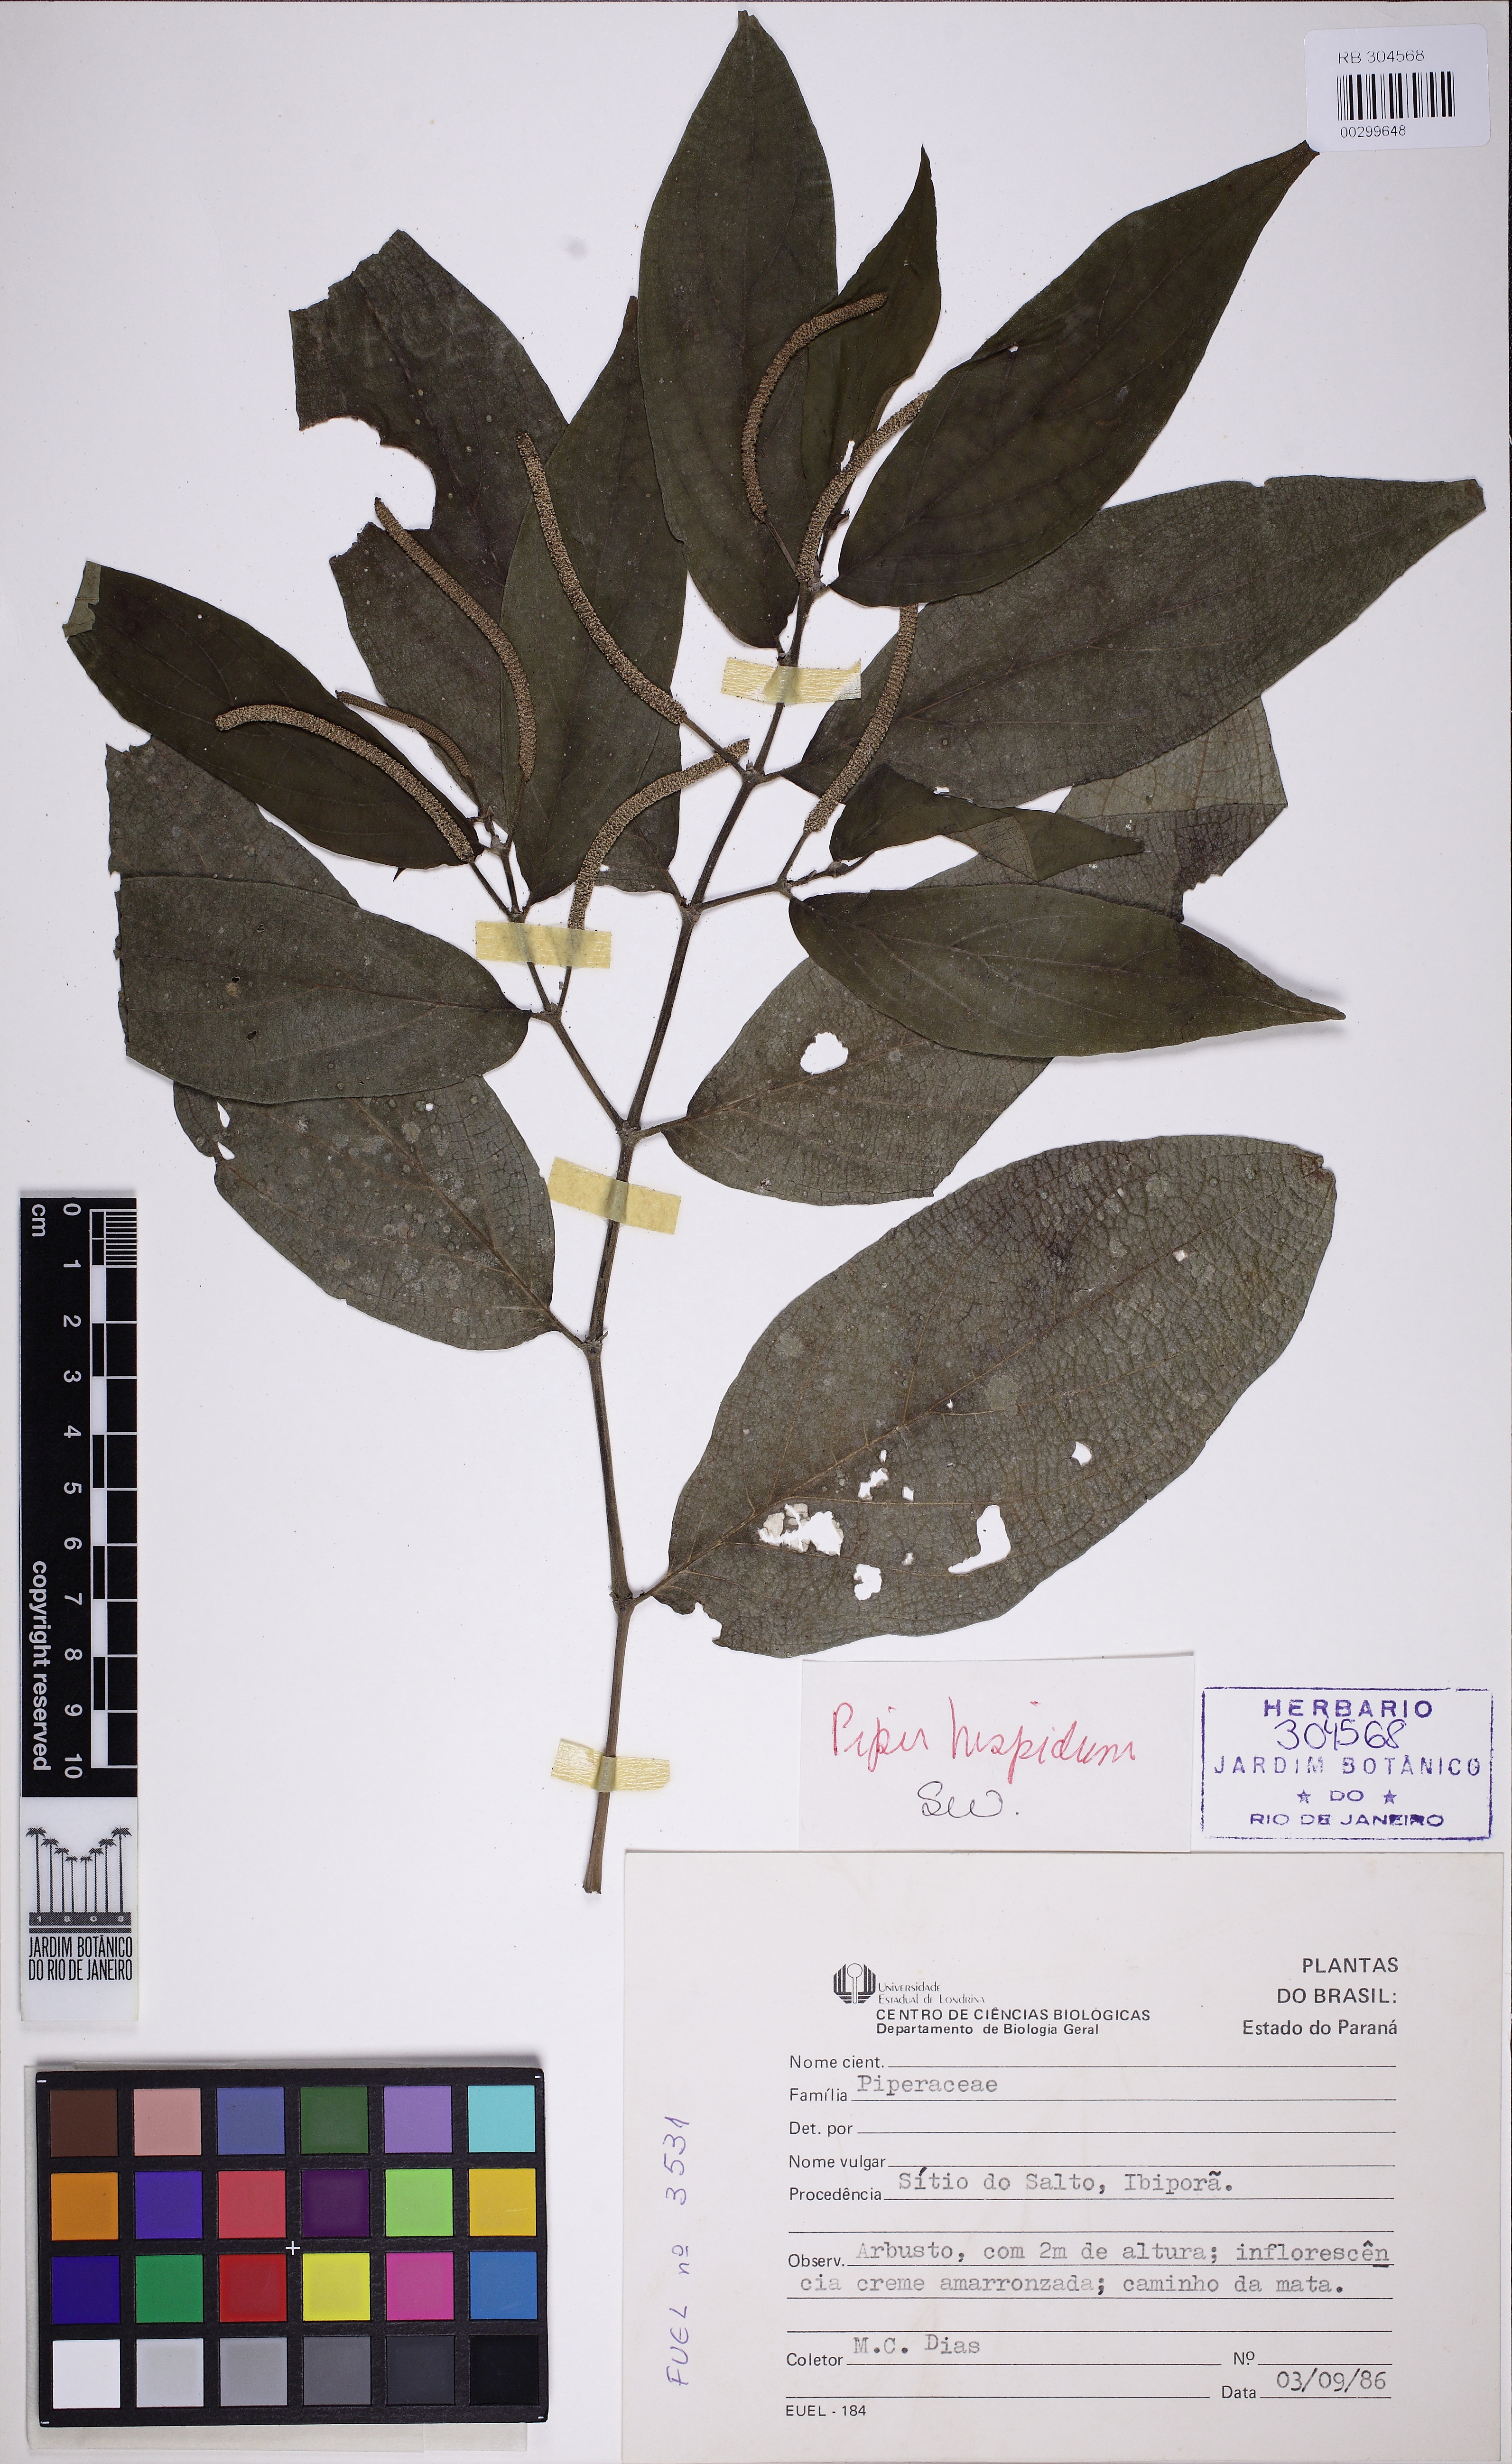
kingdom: Plantae
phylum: Tracheophyta
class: Magnoliopsida
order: Piperales
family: Piperaceae
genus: Piper
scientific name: Piper hispidum
